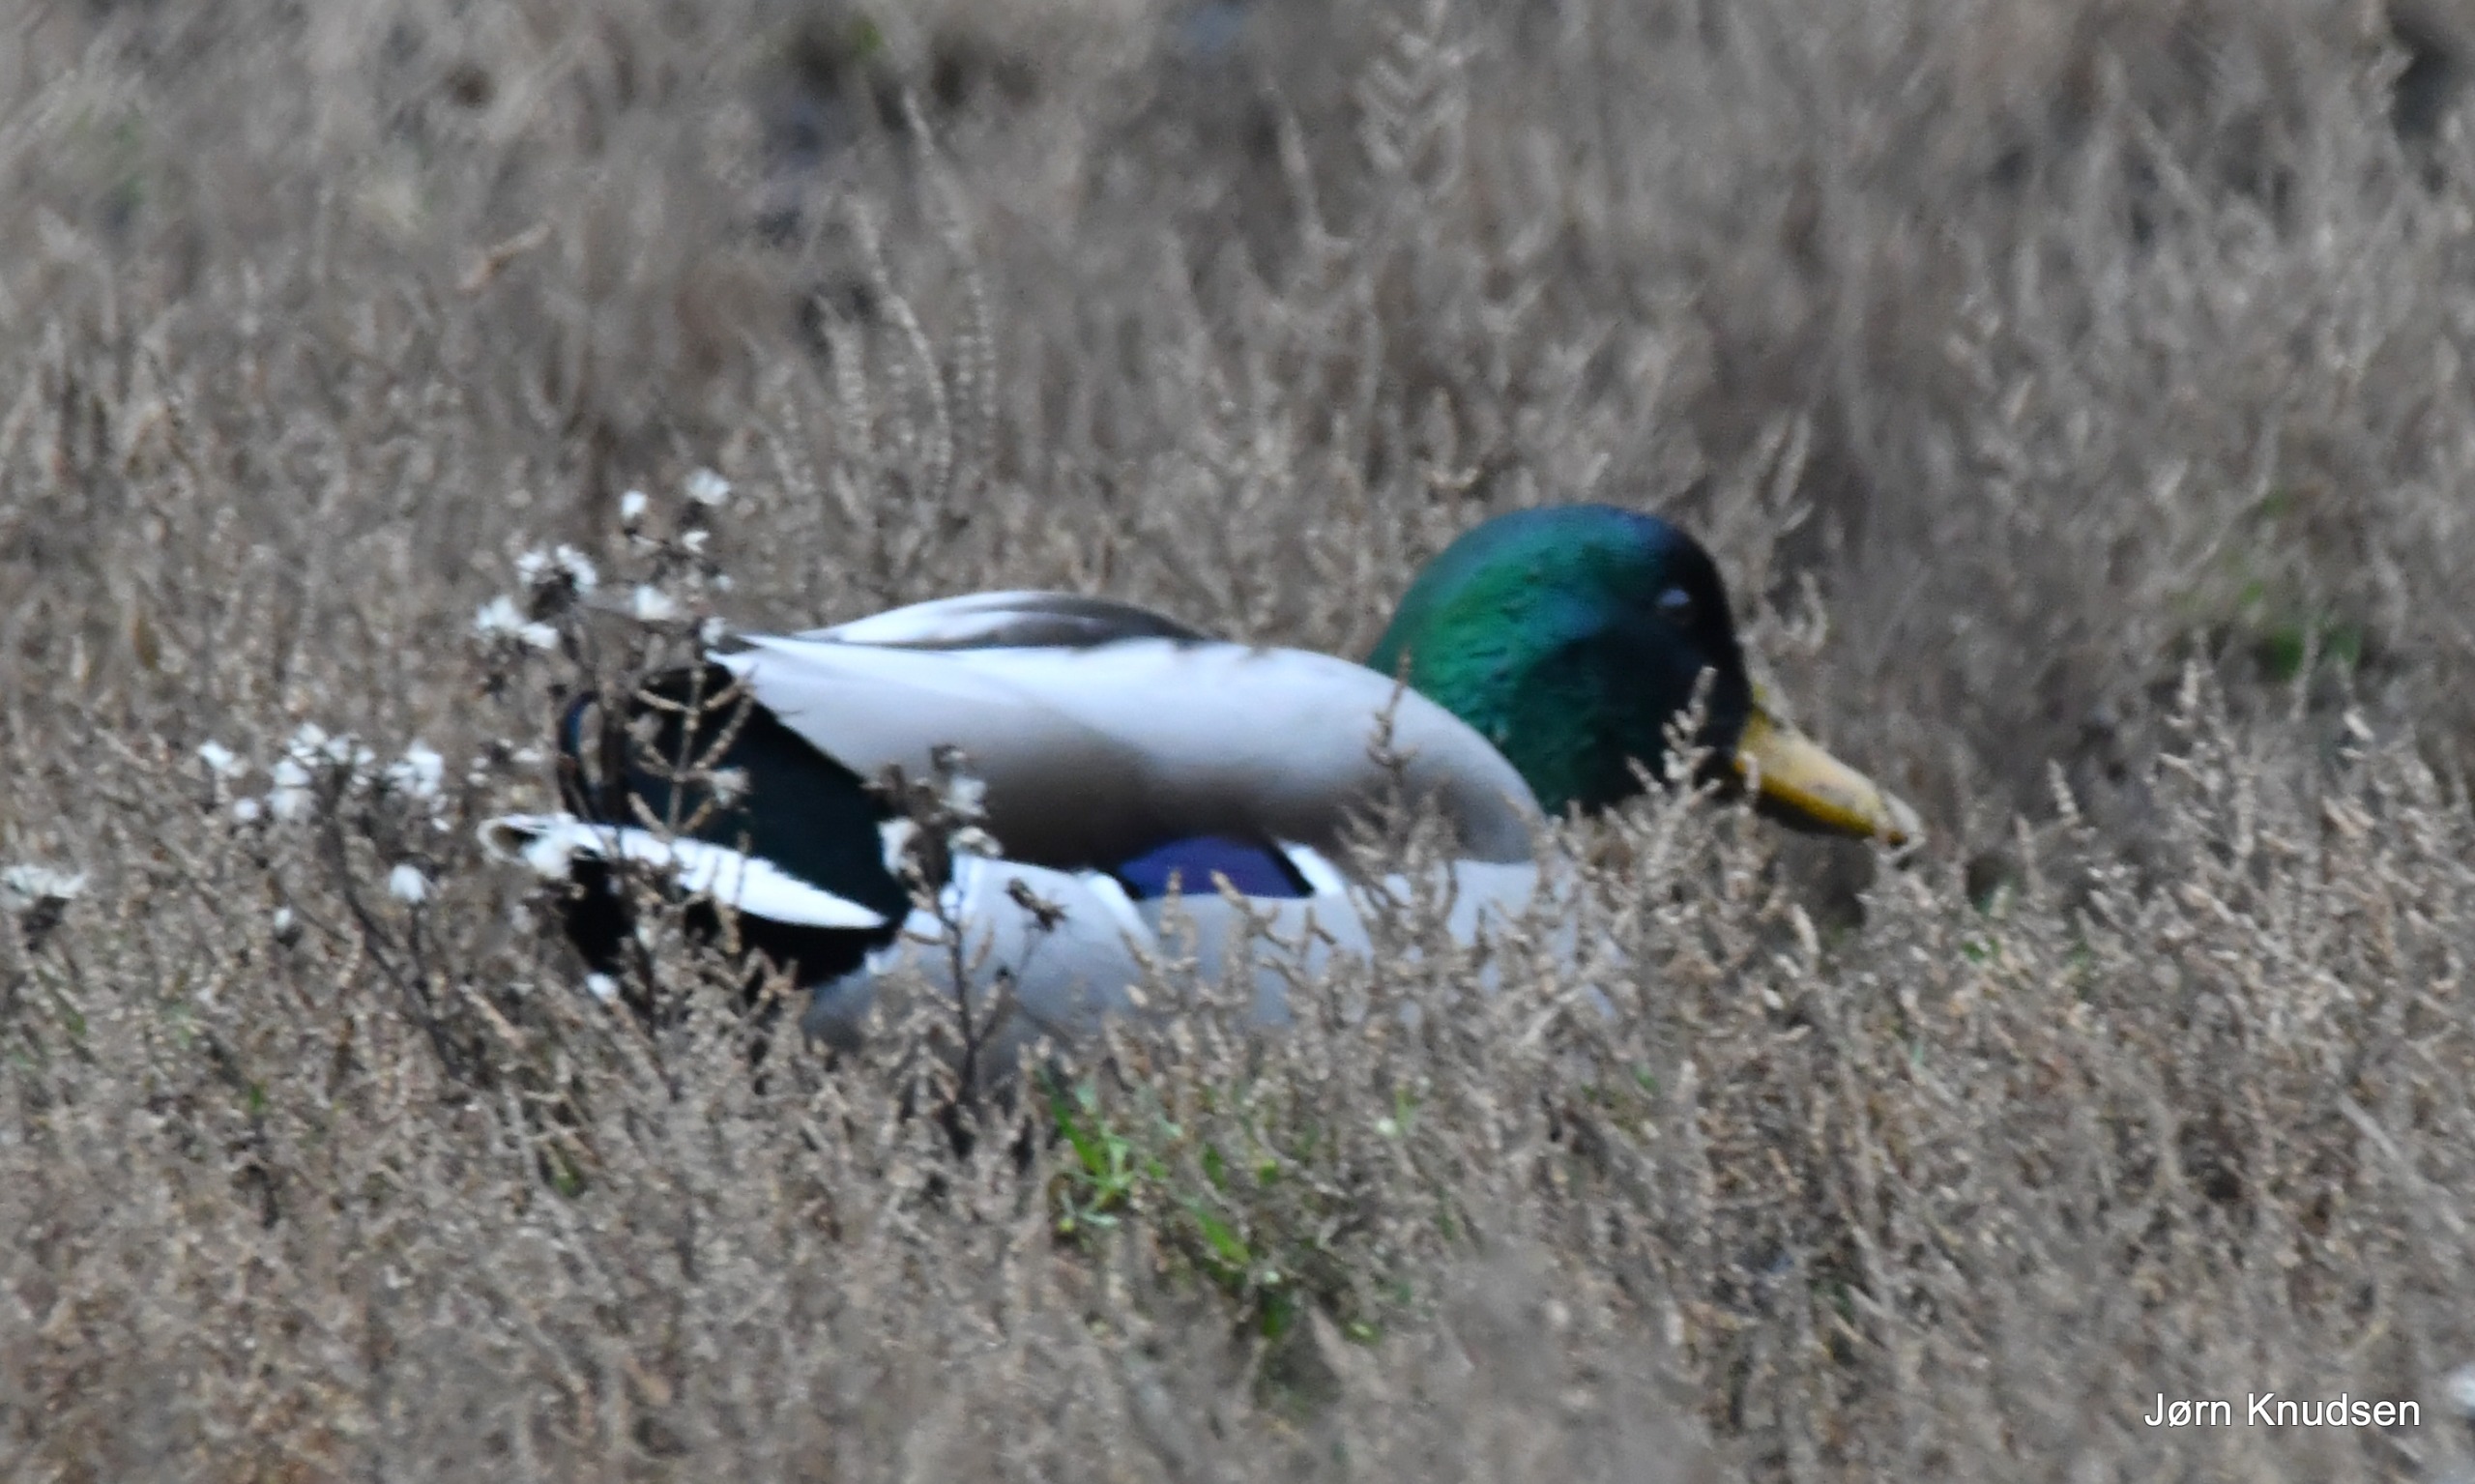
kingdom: Animalia
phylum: Chordata
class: Aves
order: Anseriformes
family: Anatidae
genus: Anas
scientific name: Anas platyrhynchos
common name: Gråand
